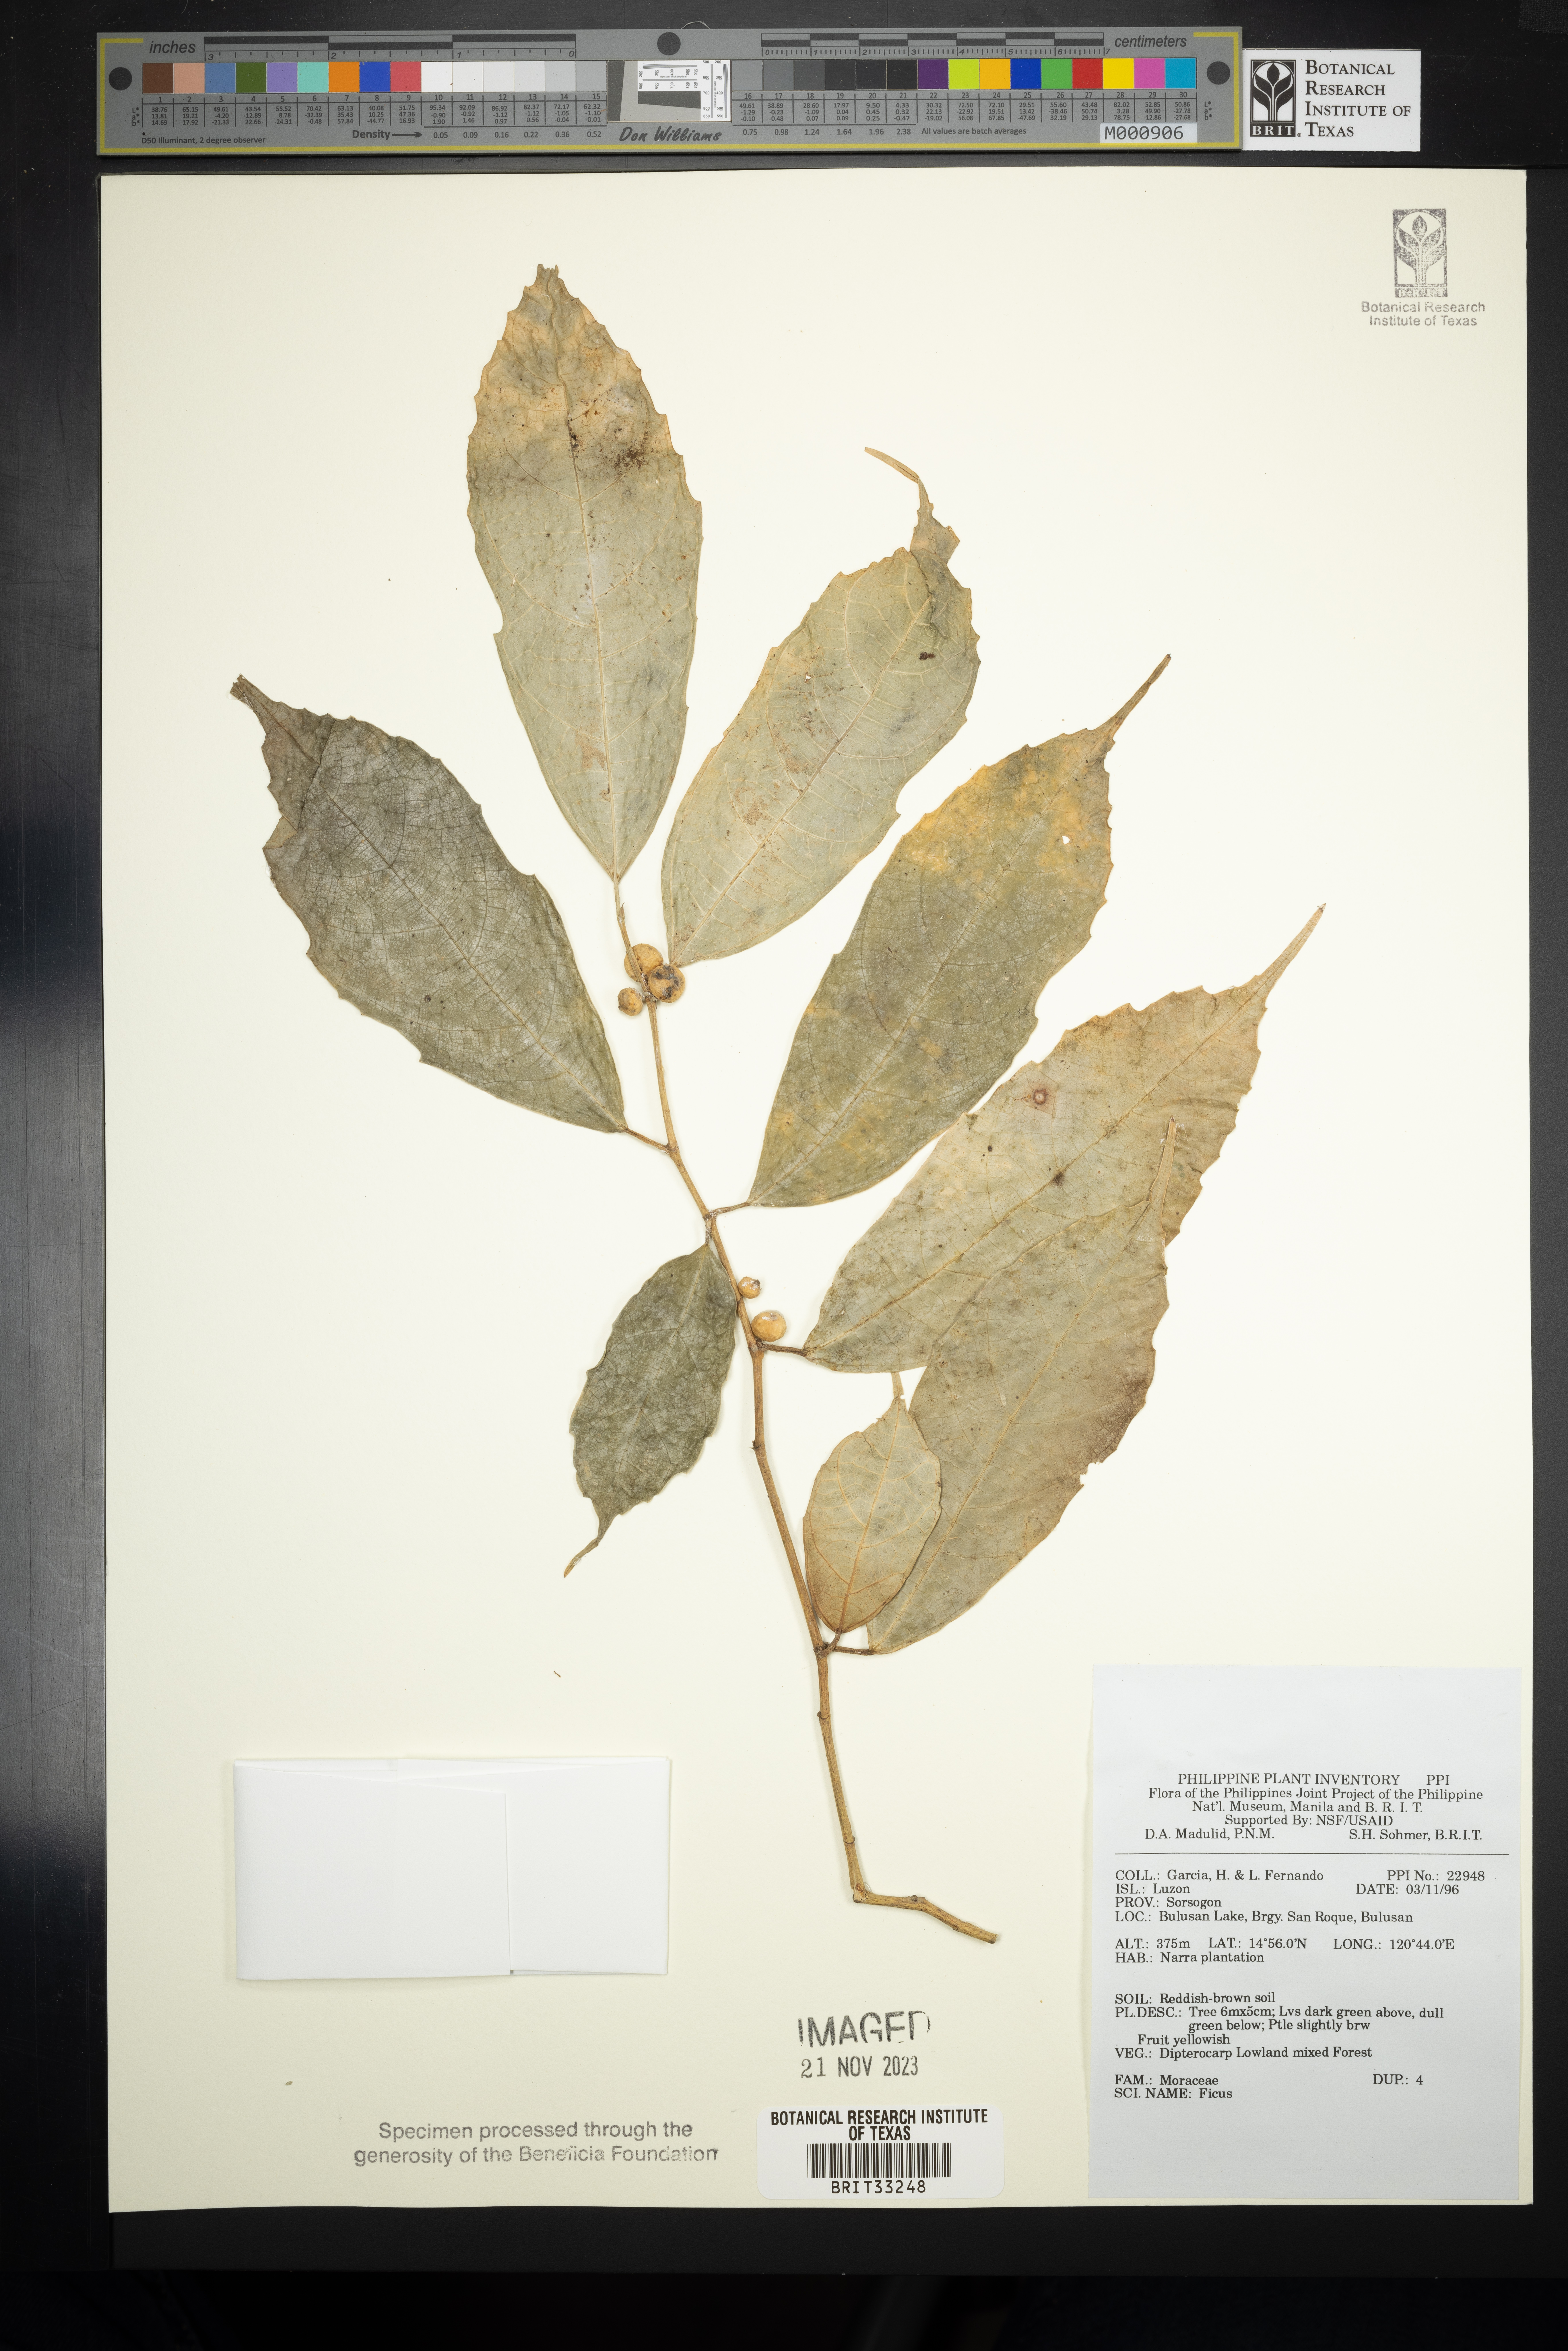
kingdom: Plantae
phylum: Tracheophyta
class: Magnoliopsida
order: Rosales
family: Moraceae
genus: Ficus
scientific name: Ficus
